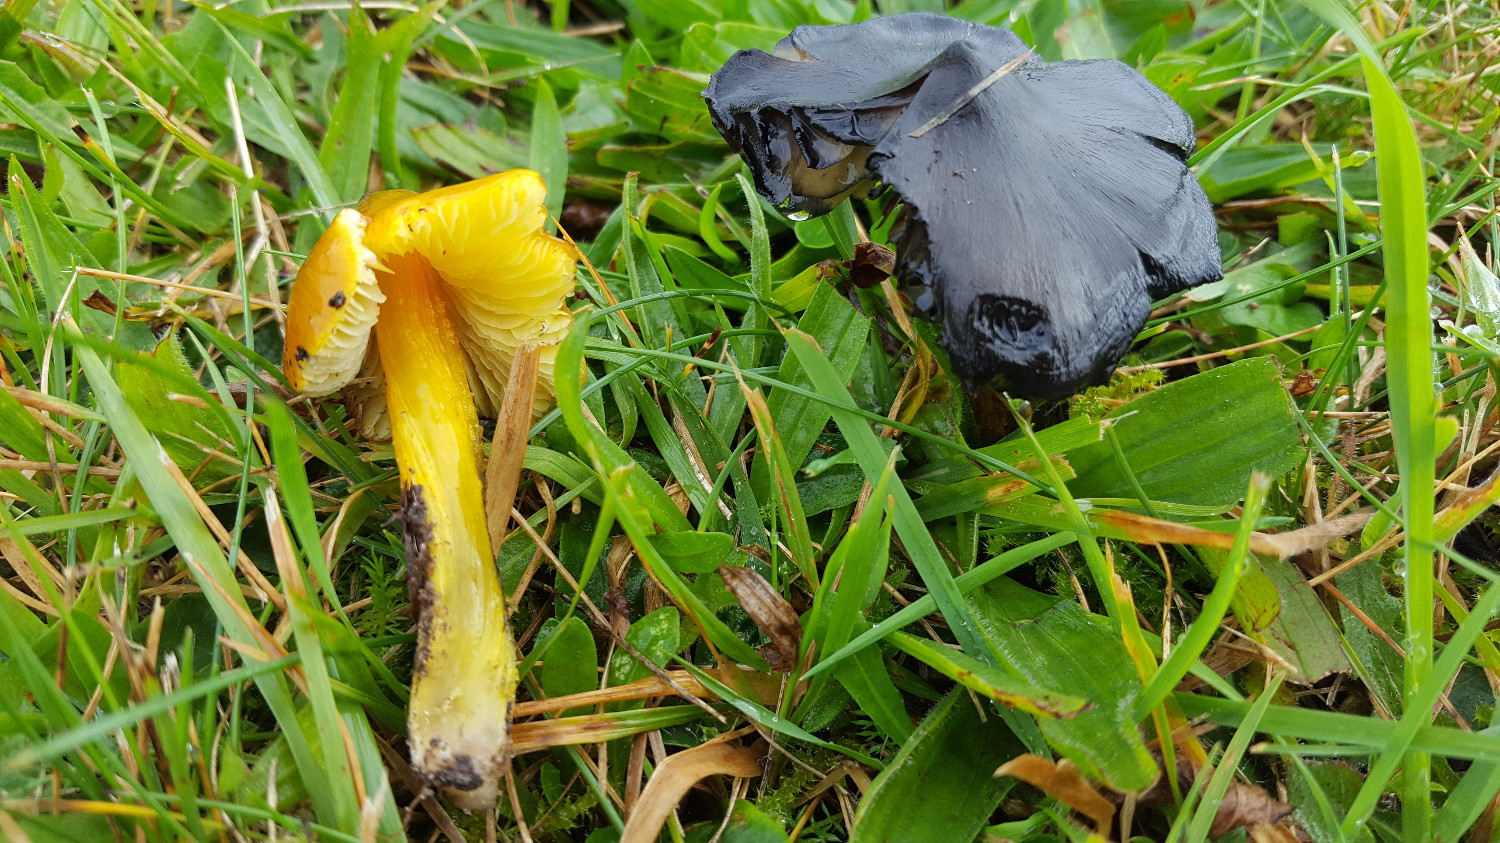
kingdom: Fungi
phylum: Basidiomycota
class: Agaricomycetes
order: Agaricales
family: Hygrophoraceae
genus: Hygrocybe
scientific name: Hygrocybe conica
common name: kegle-vokshat
